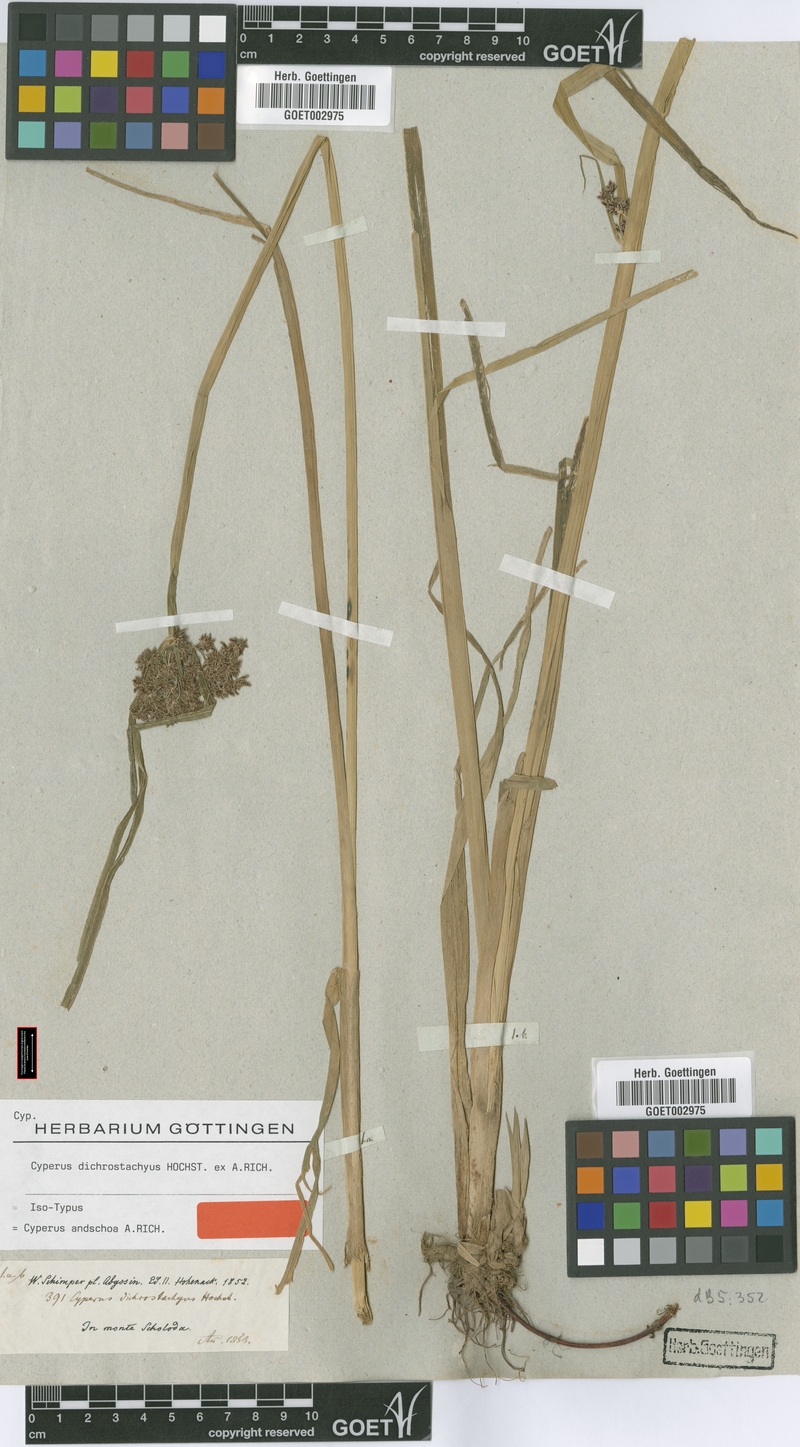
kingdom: Plantae
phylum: Tracheophyta
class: Liliopsida
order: Poales
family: Cyperaceae
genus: Cyperus
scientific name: Cyperus dichrostachyus
